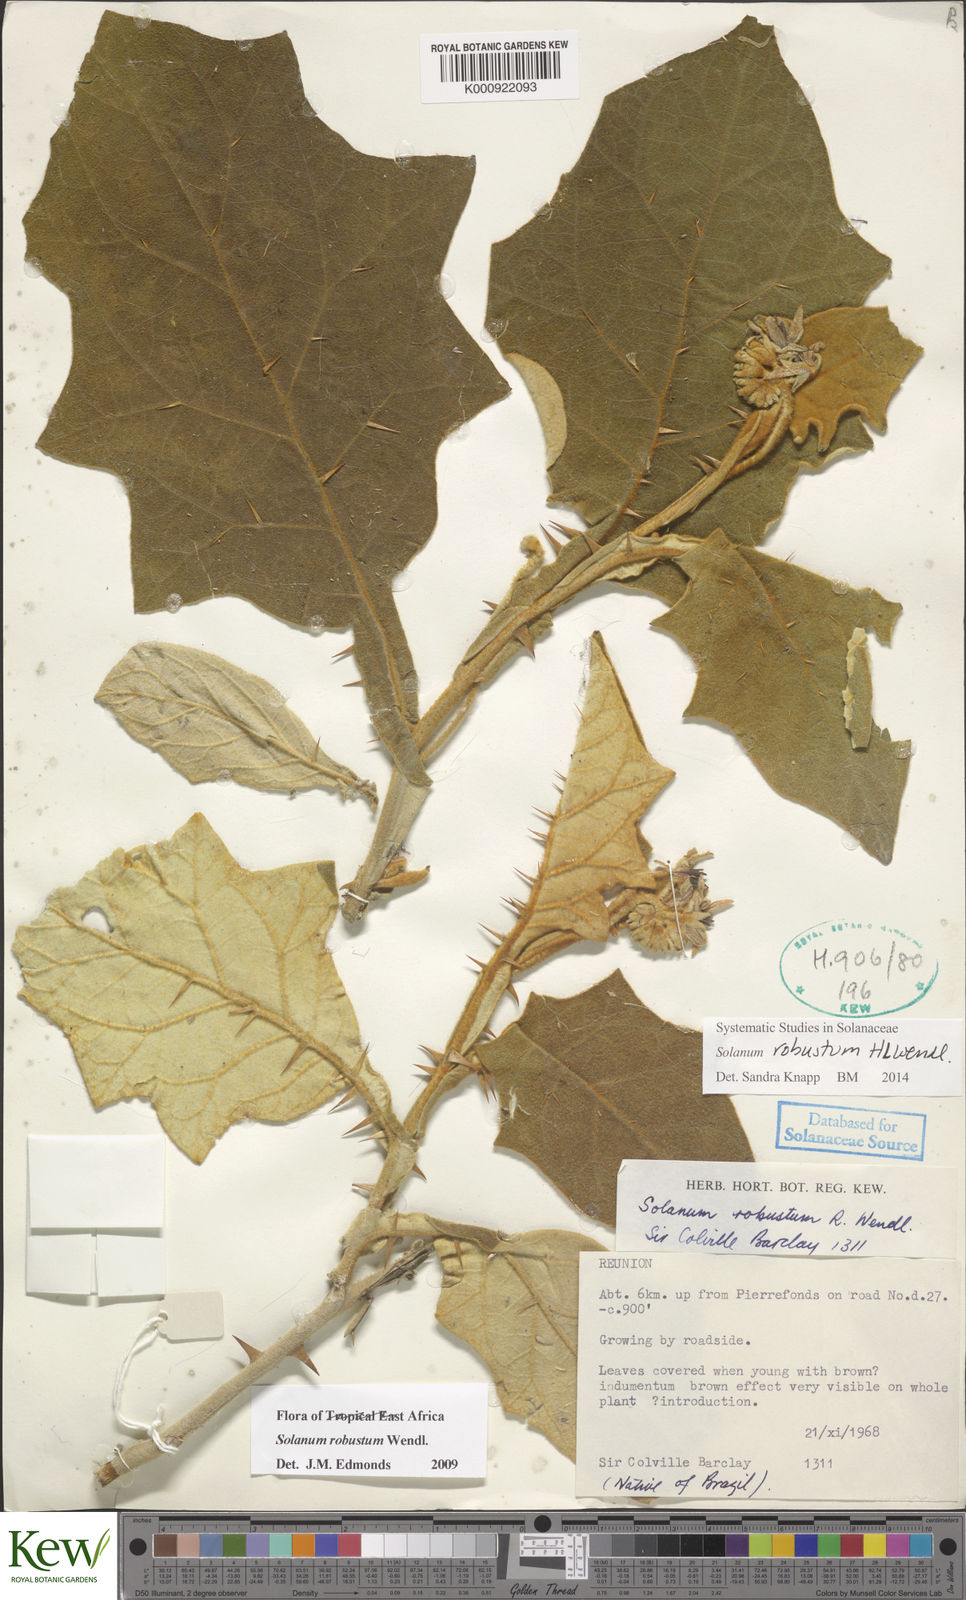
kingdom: Plantae
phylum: Tracheophyta
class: Magnoliopsida
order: Solanales
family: Solanaceae
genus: Solanum
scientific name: Solanum robustum
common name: Shrubby nightshade
